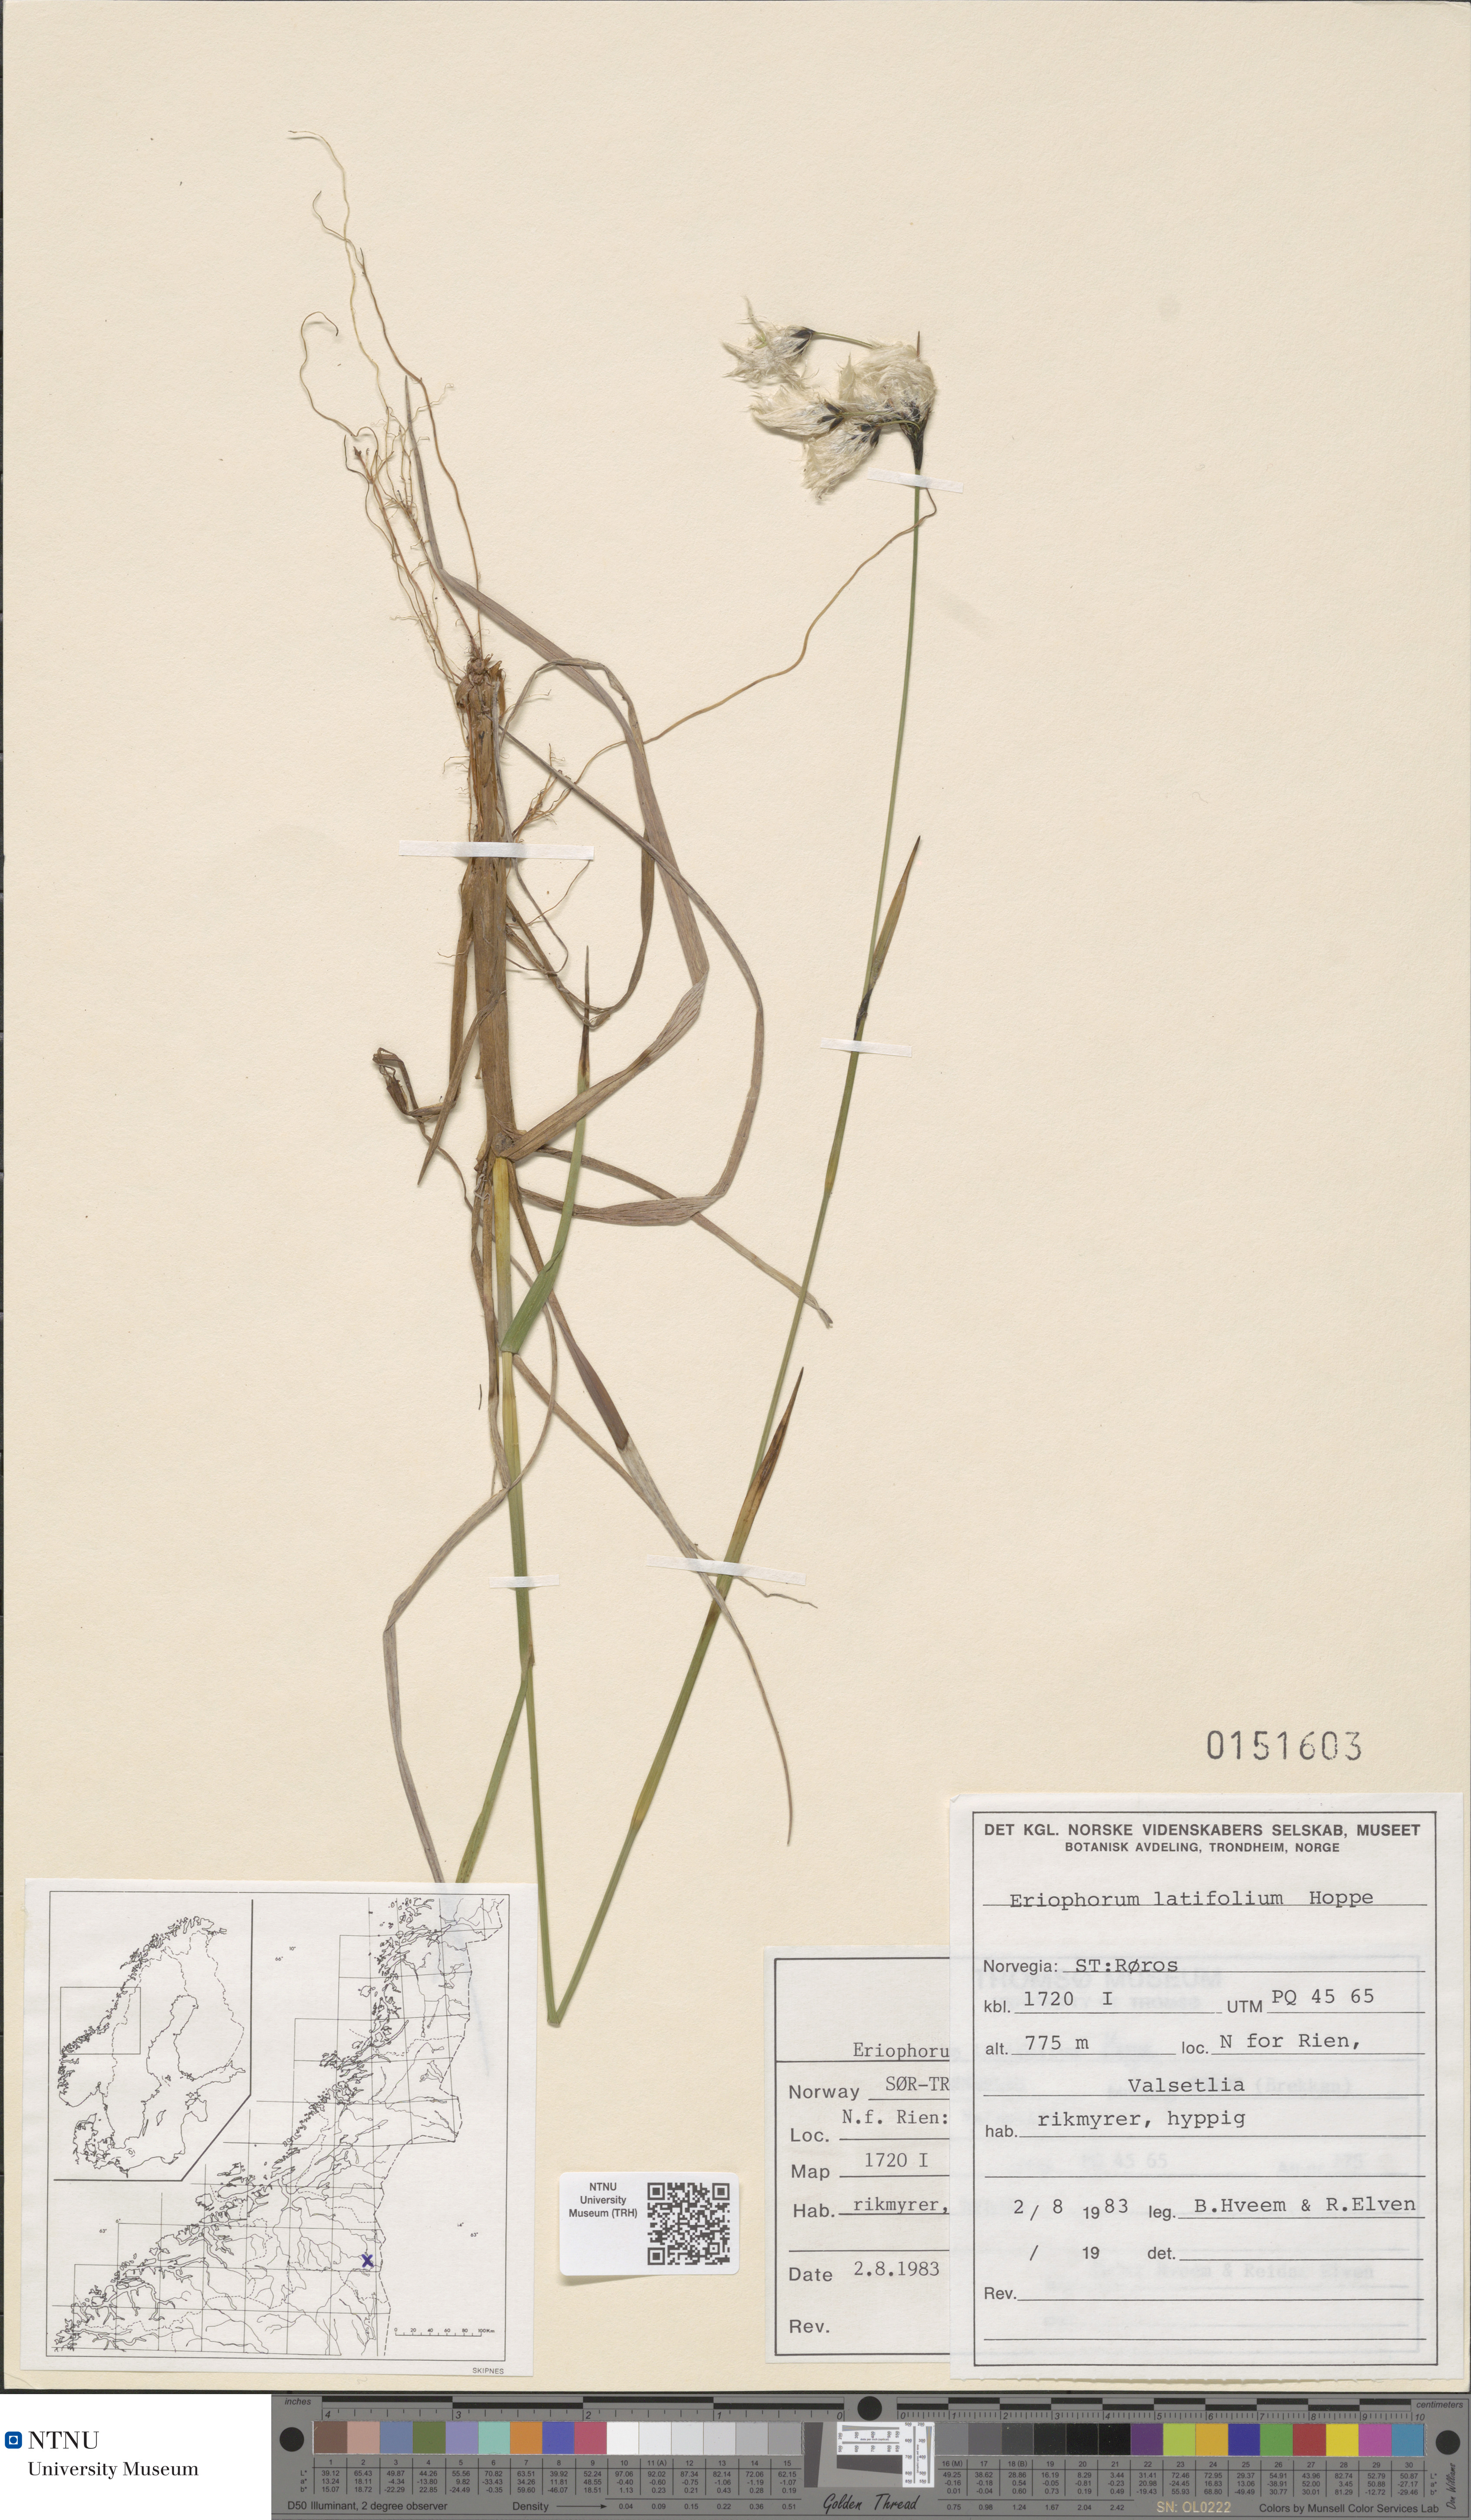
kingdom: Plantae
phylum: Tracheophyta
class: Liliopsida
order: Poales
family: Cyperaceae
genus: Eriophorum
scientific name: Eriophorum latifolium
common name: Broad-leaved cottongrass
